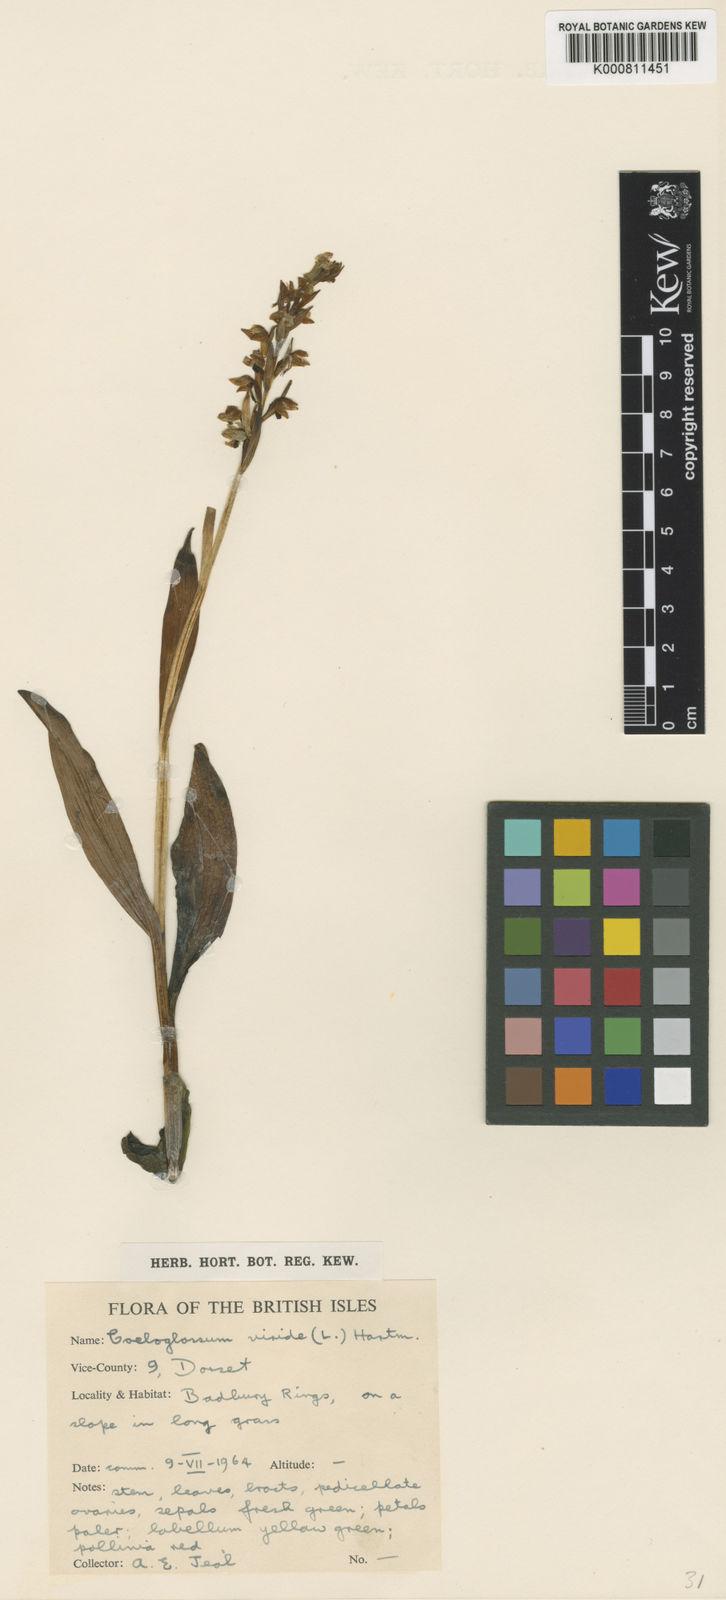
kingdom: Plantae
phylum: Tracheophyta
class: Liliopsida
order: Asparagales
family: Orchidaceae
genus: Dactylorhiza
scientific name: Dactylorhiza viridis
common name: Longbract frog orchid
